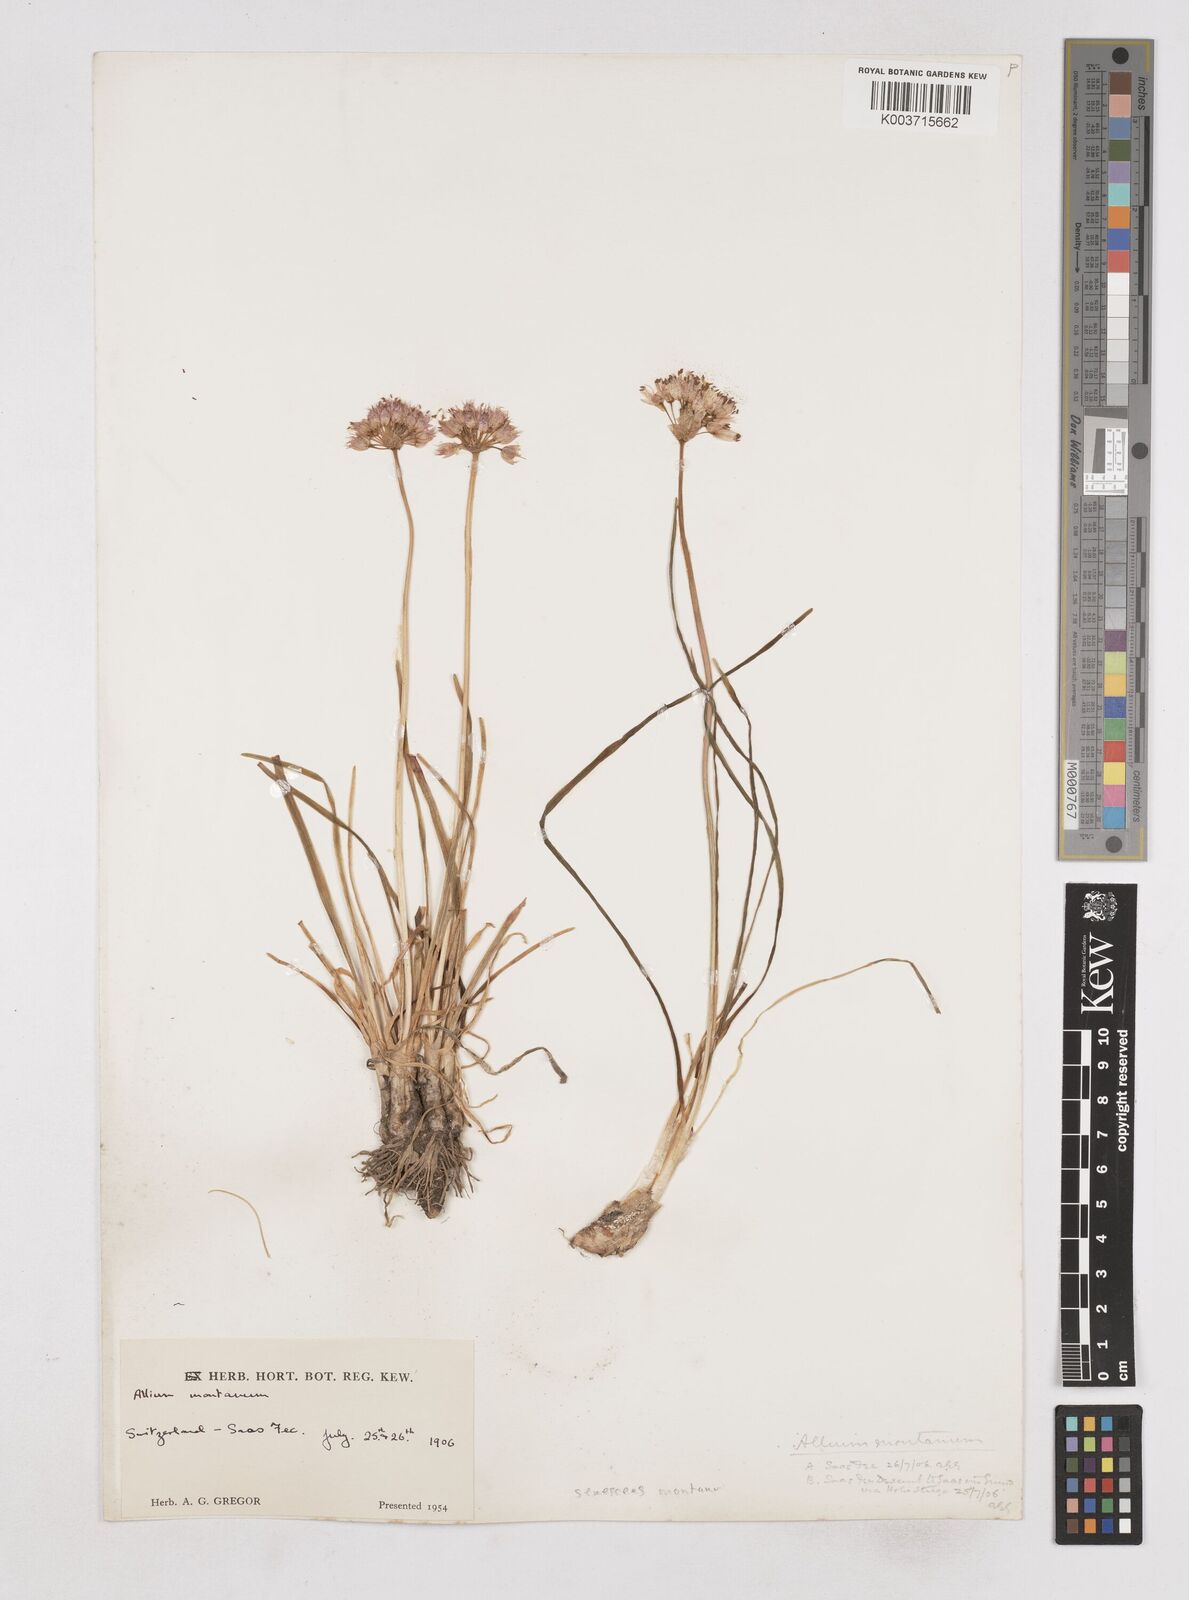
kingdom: Plantae
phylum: Tracheophyta
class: Liliopsida
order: Asparagales
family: Amaryllidaceae
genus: Allium
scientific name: Allium
